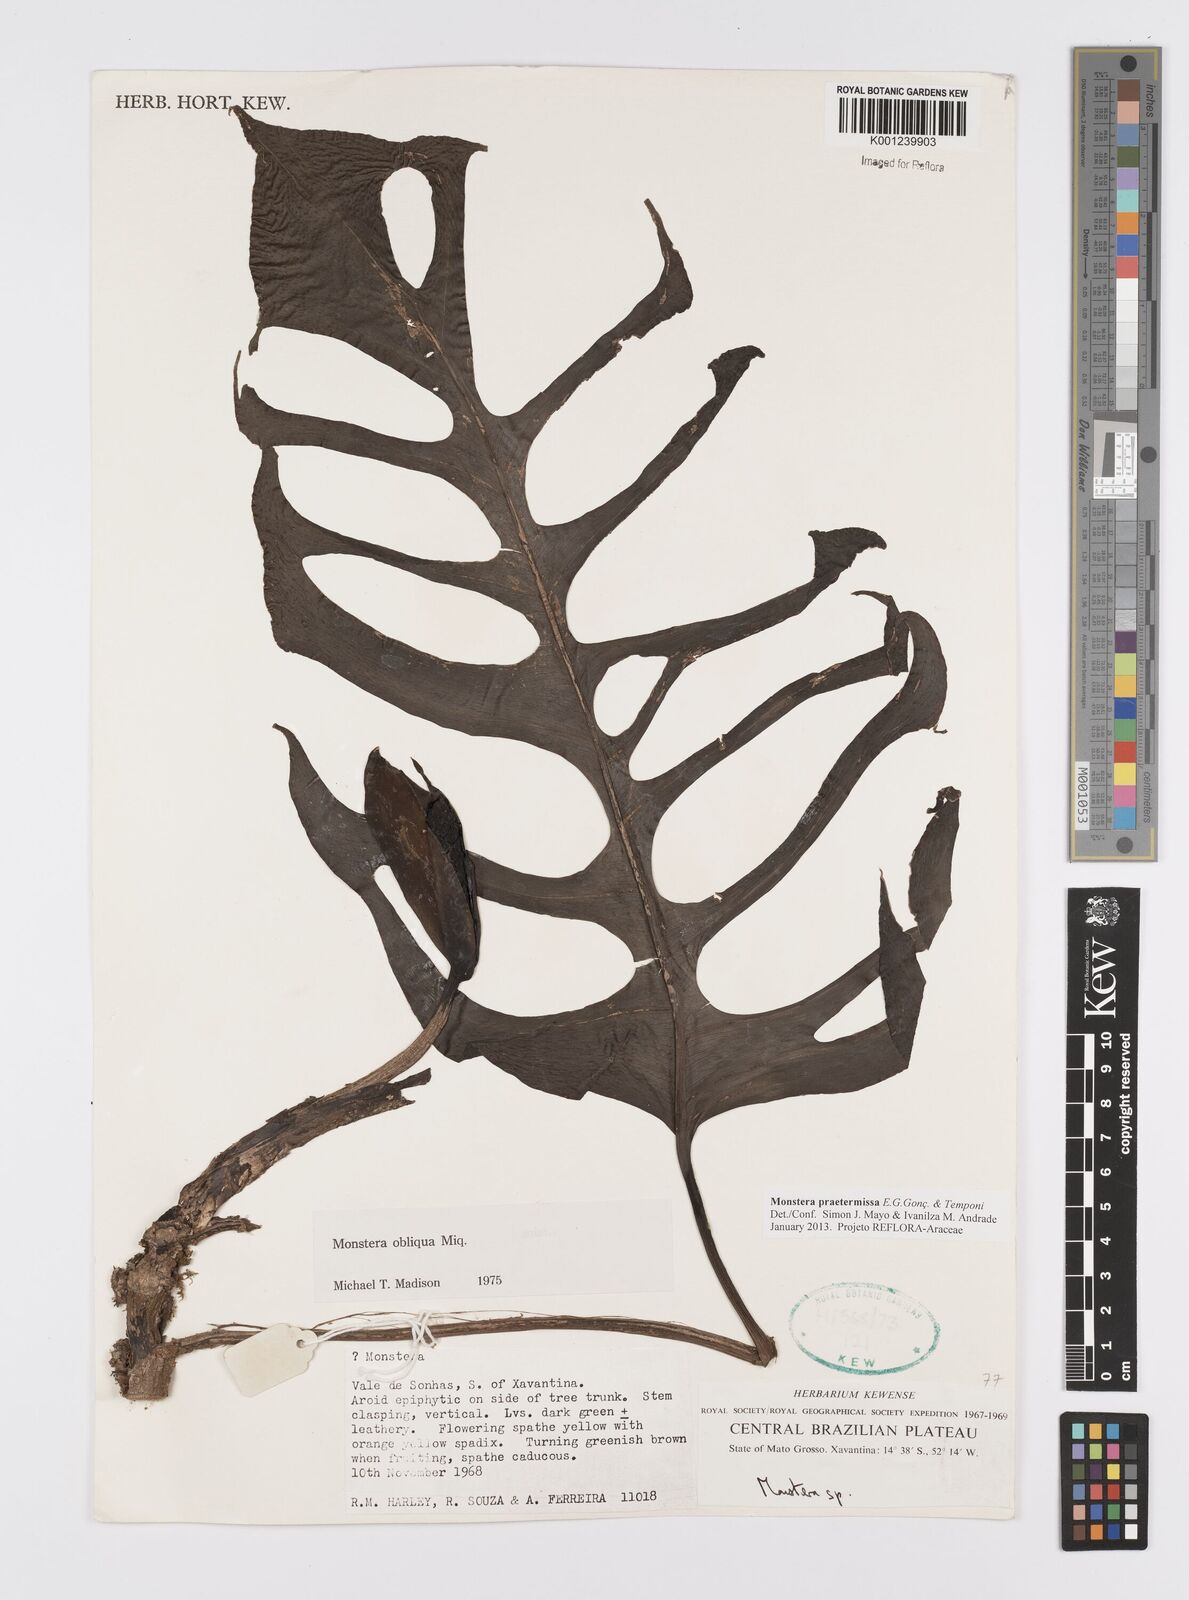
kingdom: Plantae
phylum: Tracheophyta
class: Liliopsida
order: Alismatales
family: Araceae
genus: Monstera
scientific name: Monstera praetermissa
